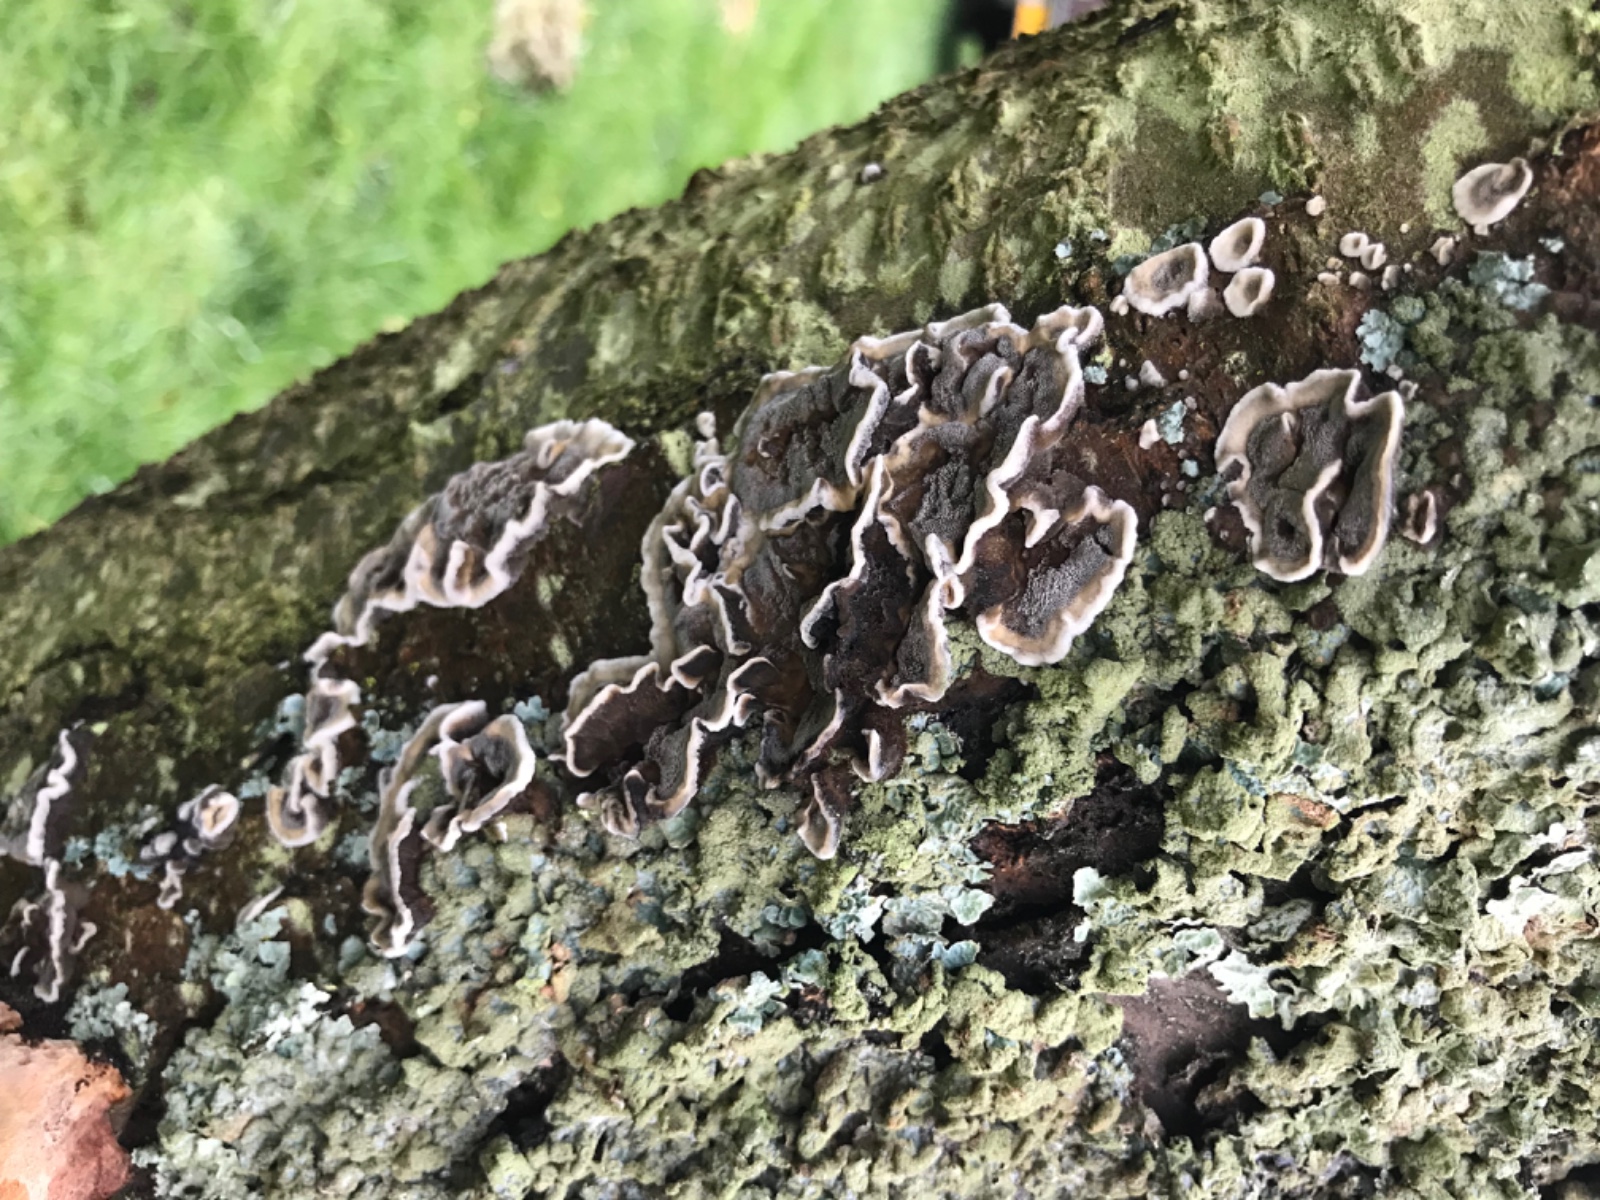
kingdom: Fungi
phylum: Basidiomycota
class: Agaricomycetes
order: Polyporales
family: Phanerochaetaceae
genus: Bjerkandera
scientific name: Bjerkandera adusta
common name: sveden sodporesvamp
